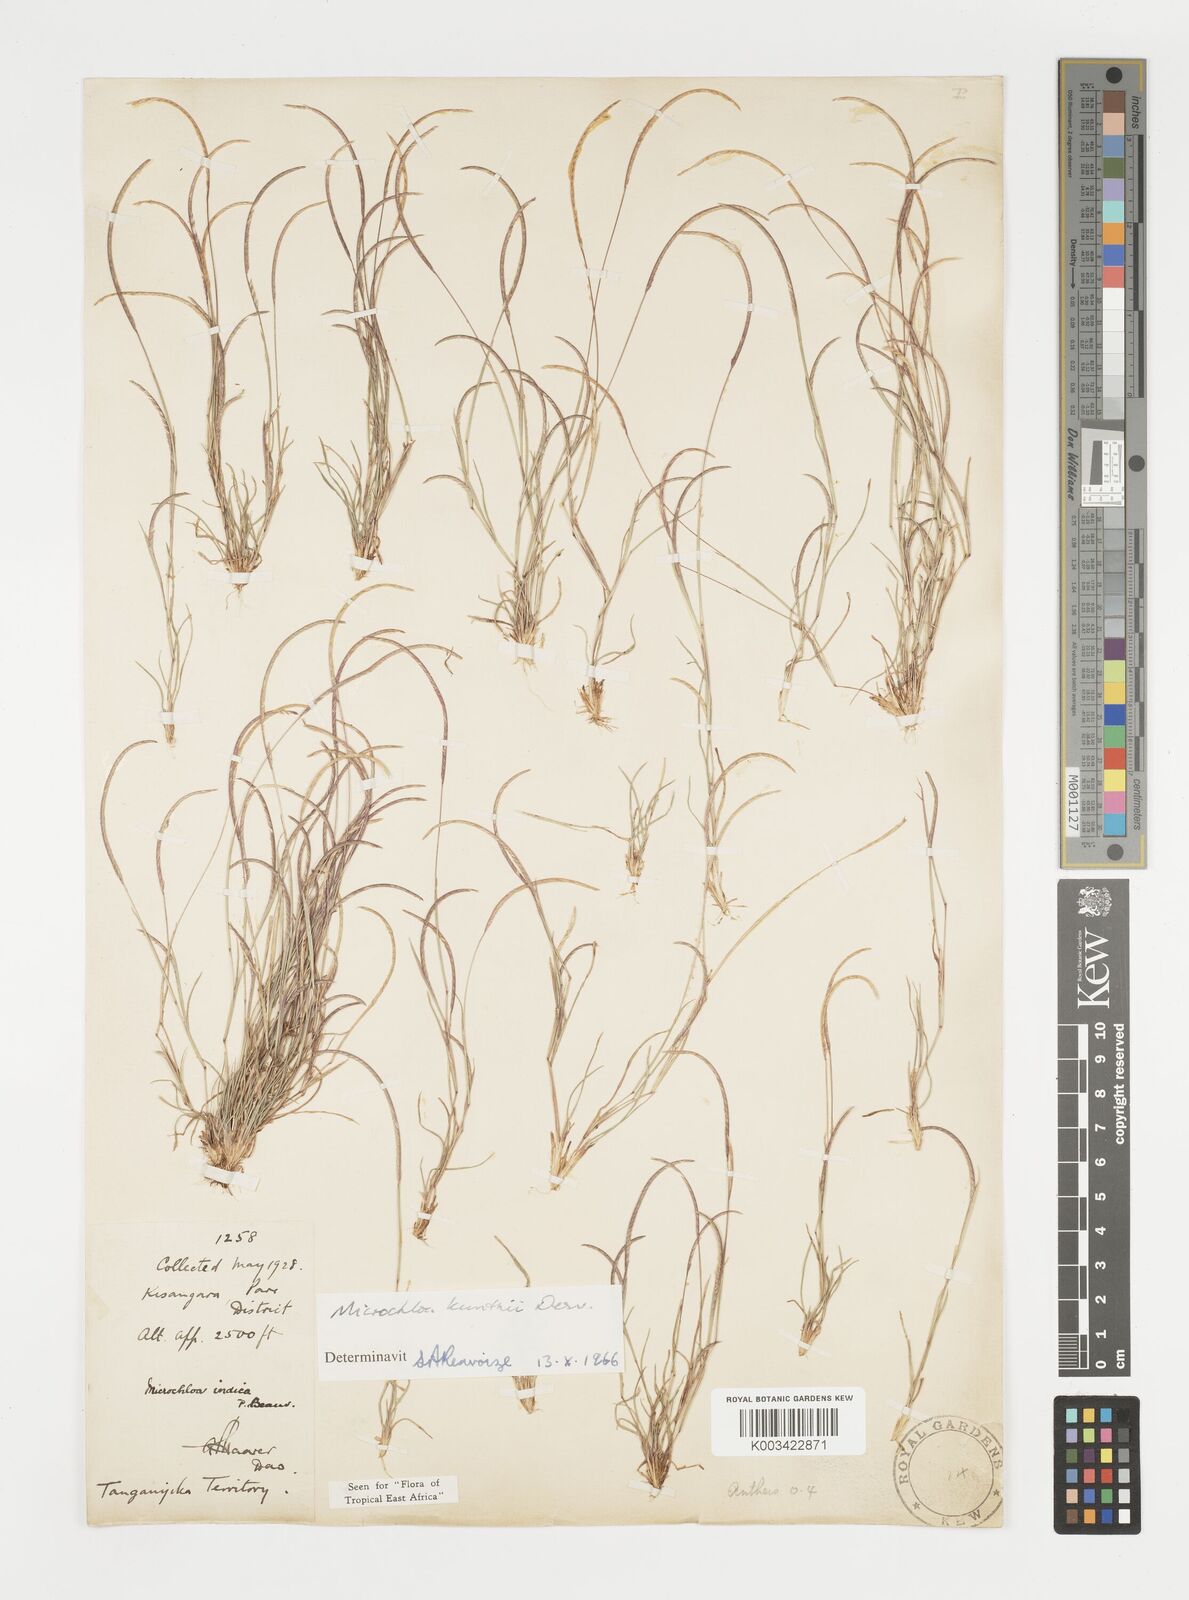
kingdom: Plantae
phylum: Tracheophyta
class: Liliopsida
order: Poales
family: Poaceae
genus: Microchloa
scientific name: Microchloa kunthii
